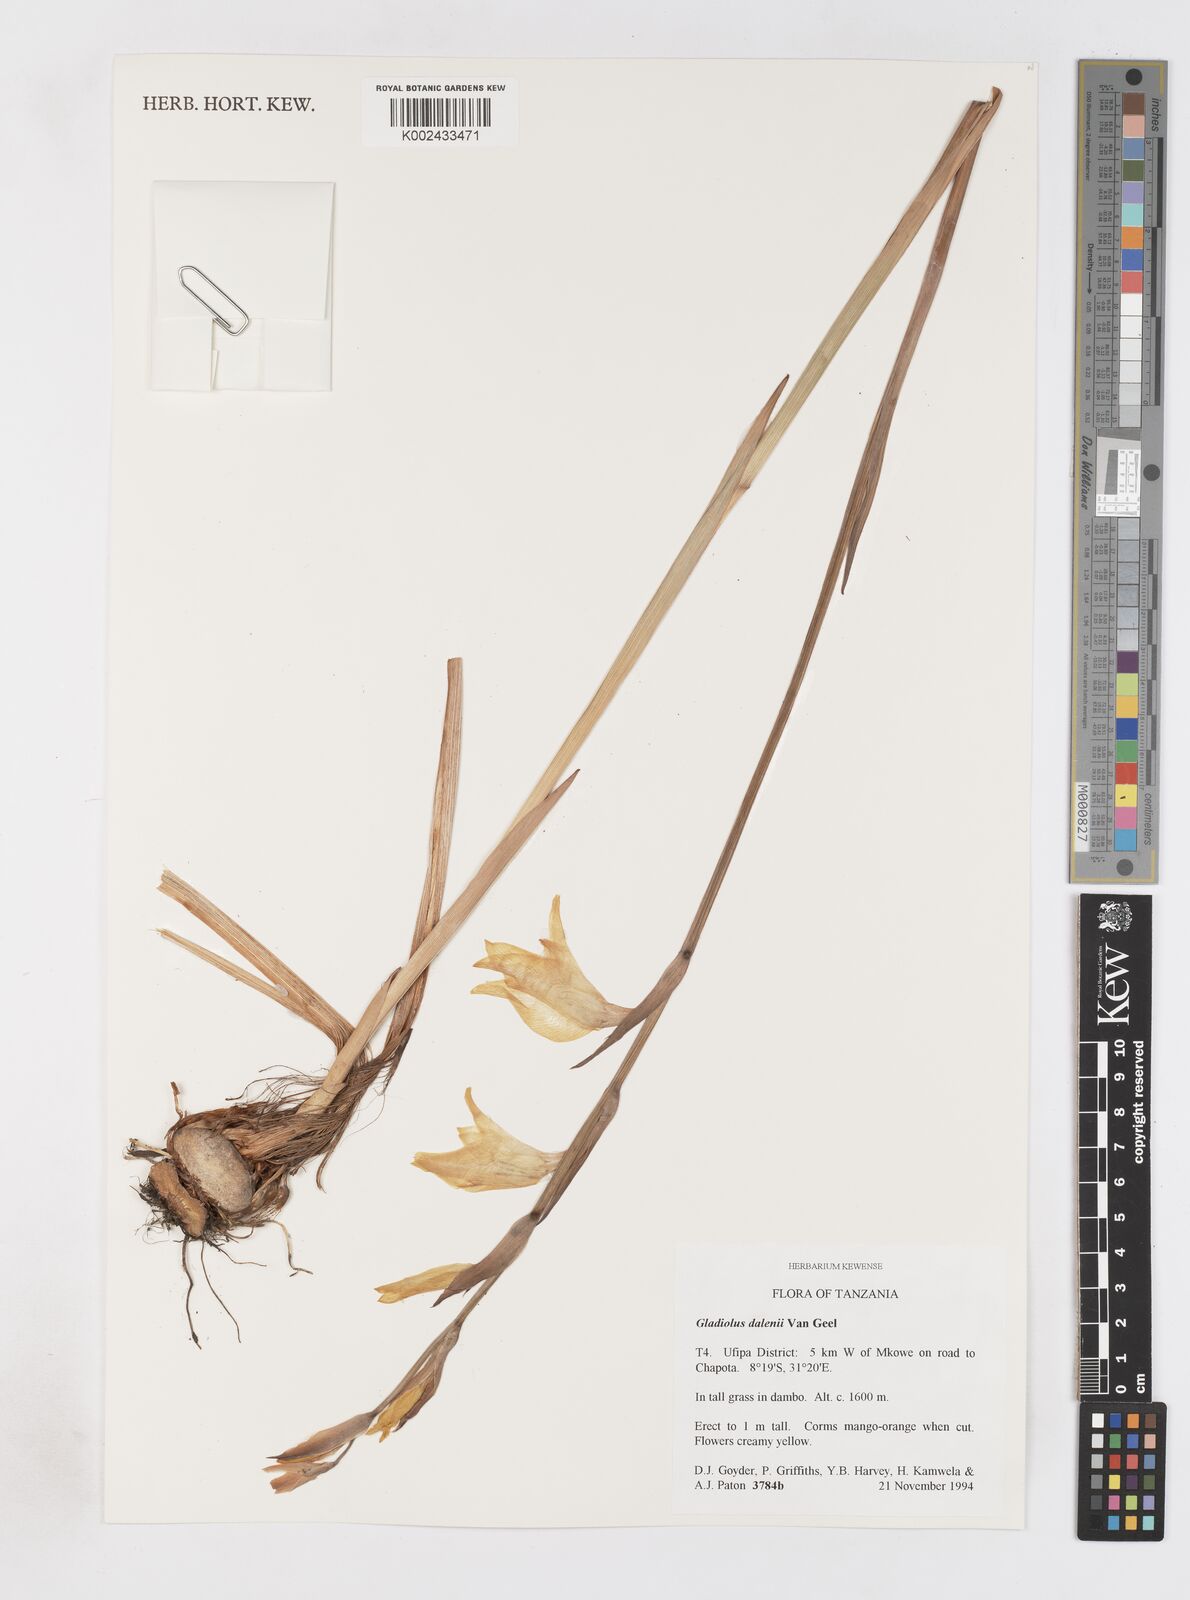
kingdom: Plantae
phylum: Tracheophyta
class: Liliopsida
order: Asparagales
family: Iridaceae
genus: Gladiolus
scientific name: Gladiolus dalenii
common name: Cornflag
